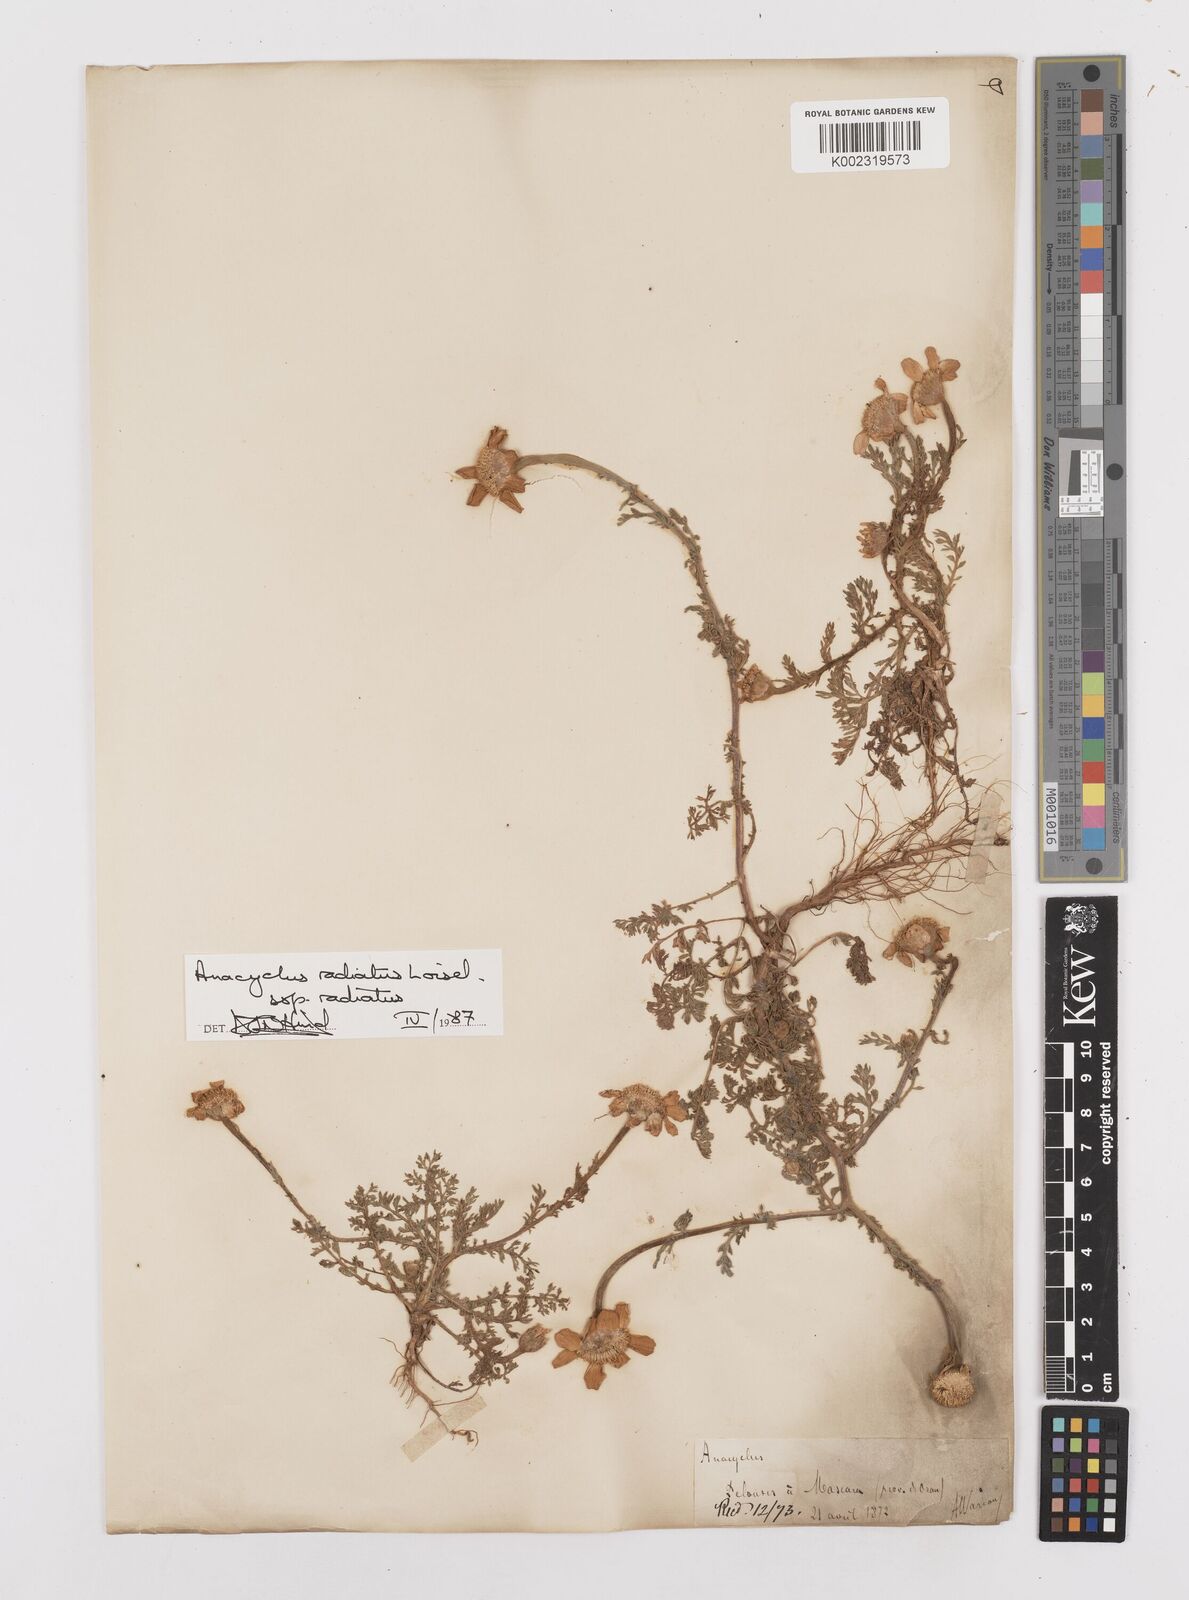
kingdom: Plantae
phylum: Tracheophyta
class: Magnoliopsida
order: Asterales
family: Asteraceae
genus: Anacyclus
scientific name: Anacyclus radiatus
